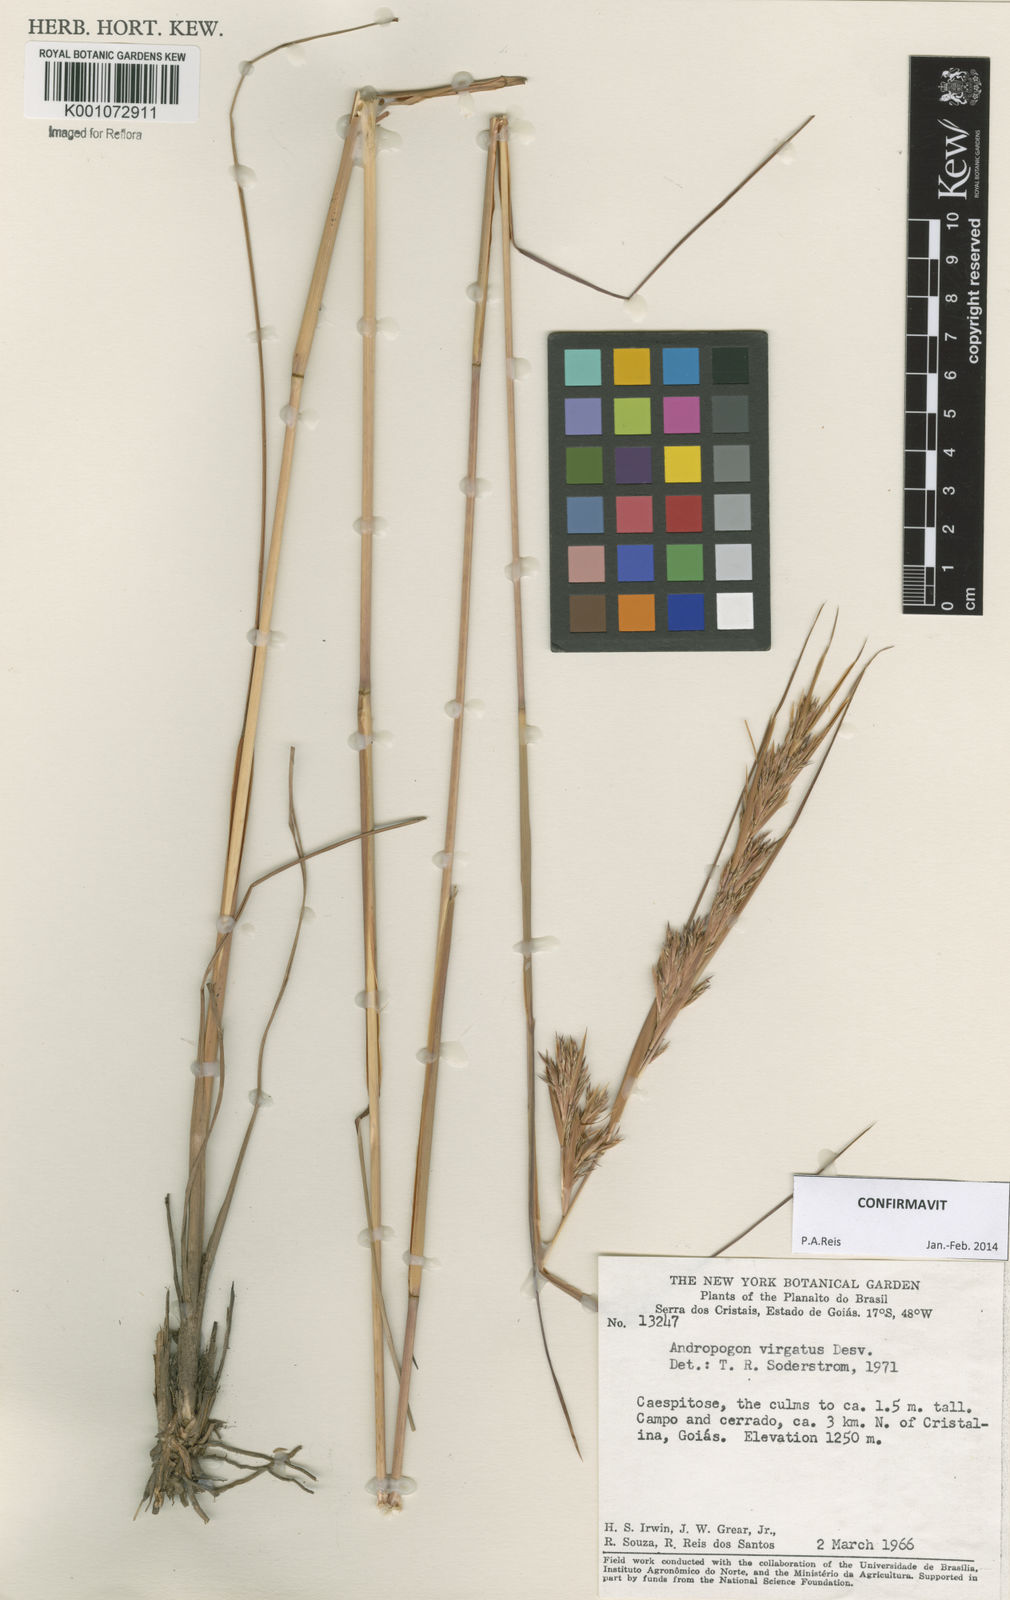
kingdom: Plantae
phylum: Tracheophyta
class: Liliopsida
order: Poales
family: Poaceae
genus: Andropogon
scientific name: Andropogon virgatus
